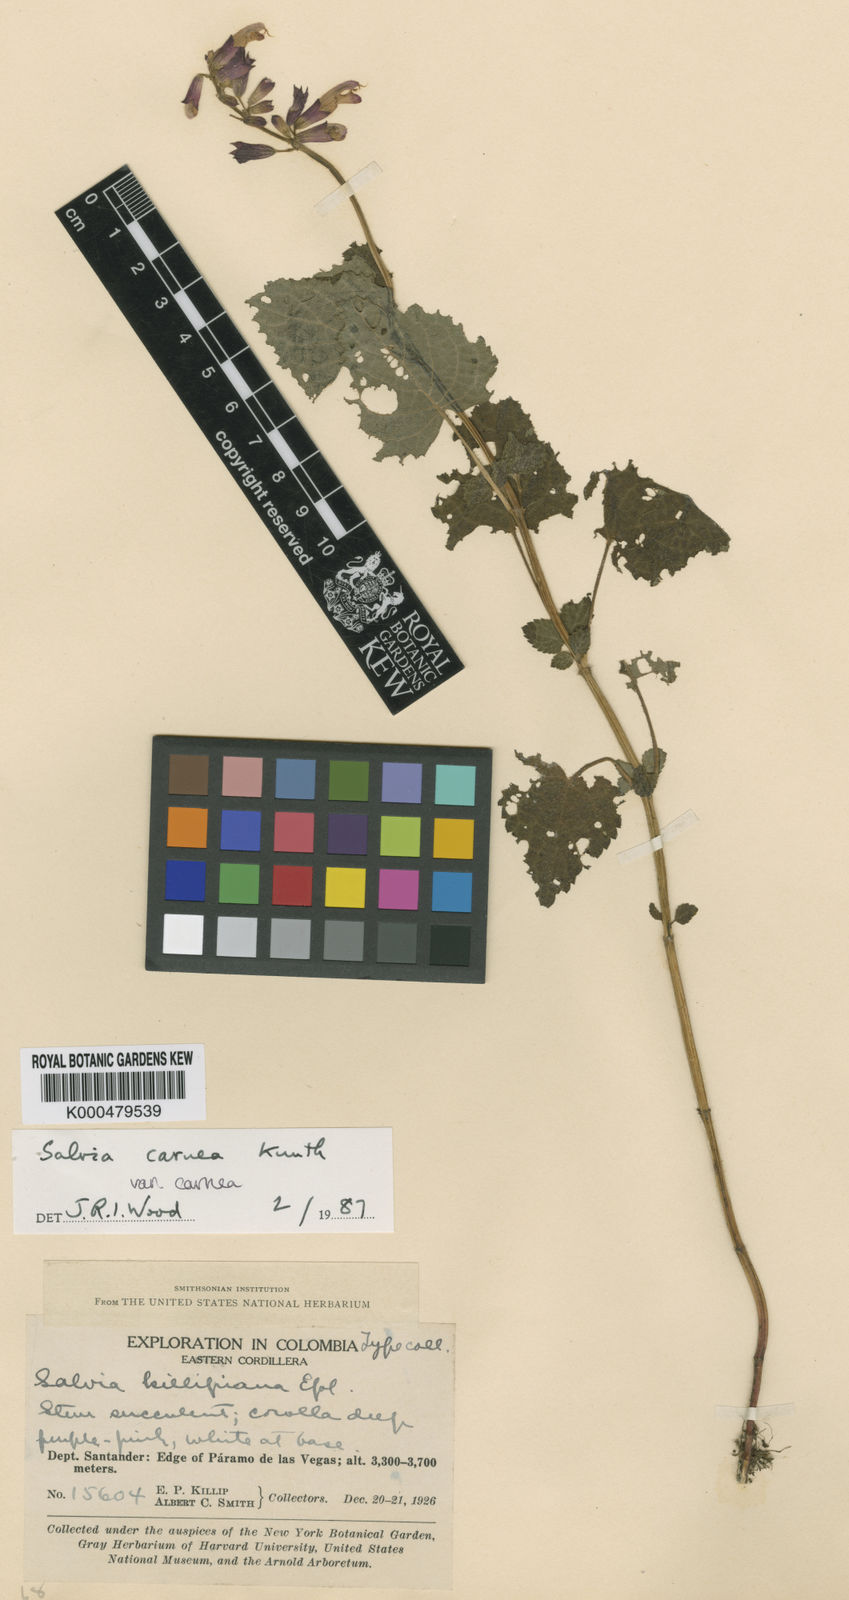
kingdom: Plantae
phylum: Tracheophyta
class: Magnoliopsida
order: Lamiales
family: Lamiaceae
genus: Salvia
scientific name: Salvia carnea
